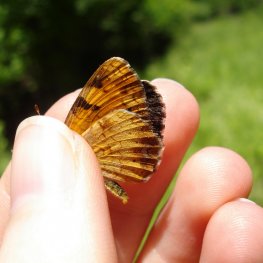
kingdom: Animalia
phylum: Arthropoda
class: Insecta
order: Lepidoptera
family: Nymphalidae
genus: Phyciodes
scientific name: Phyciodes tharos
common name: Northern Crescent
